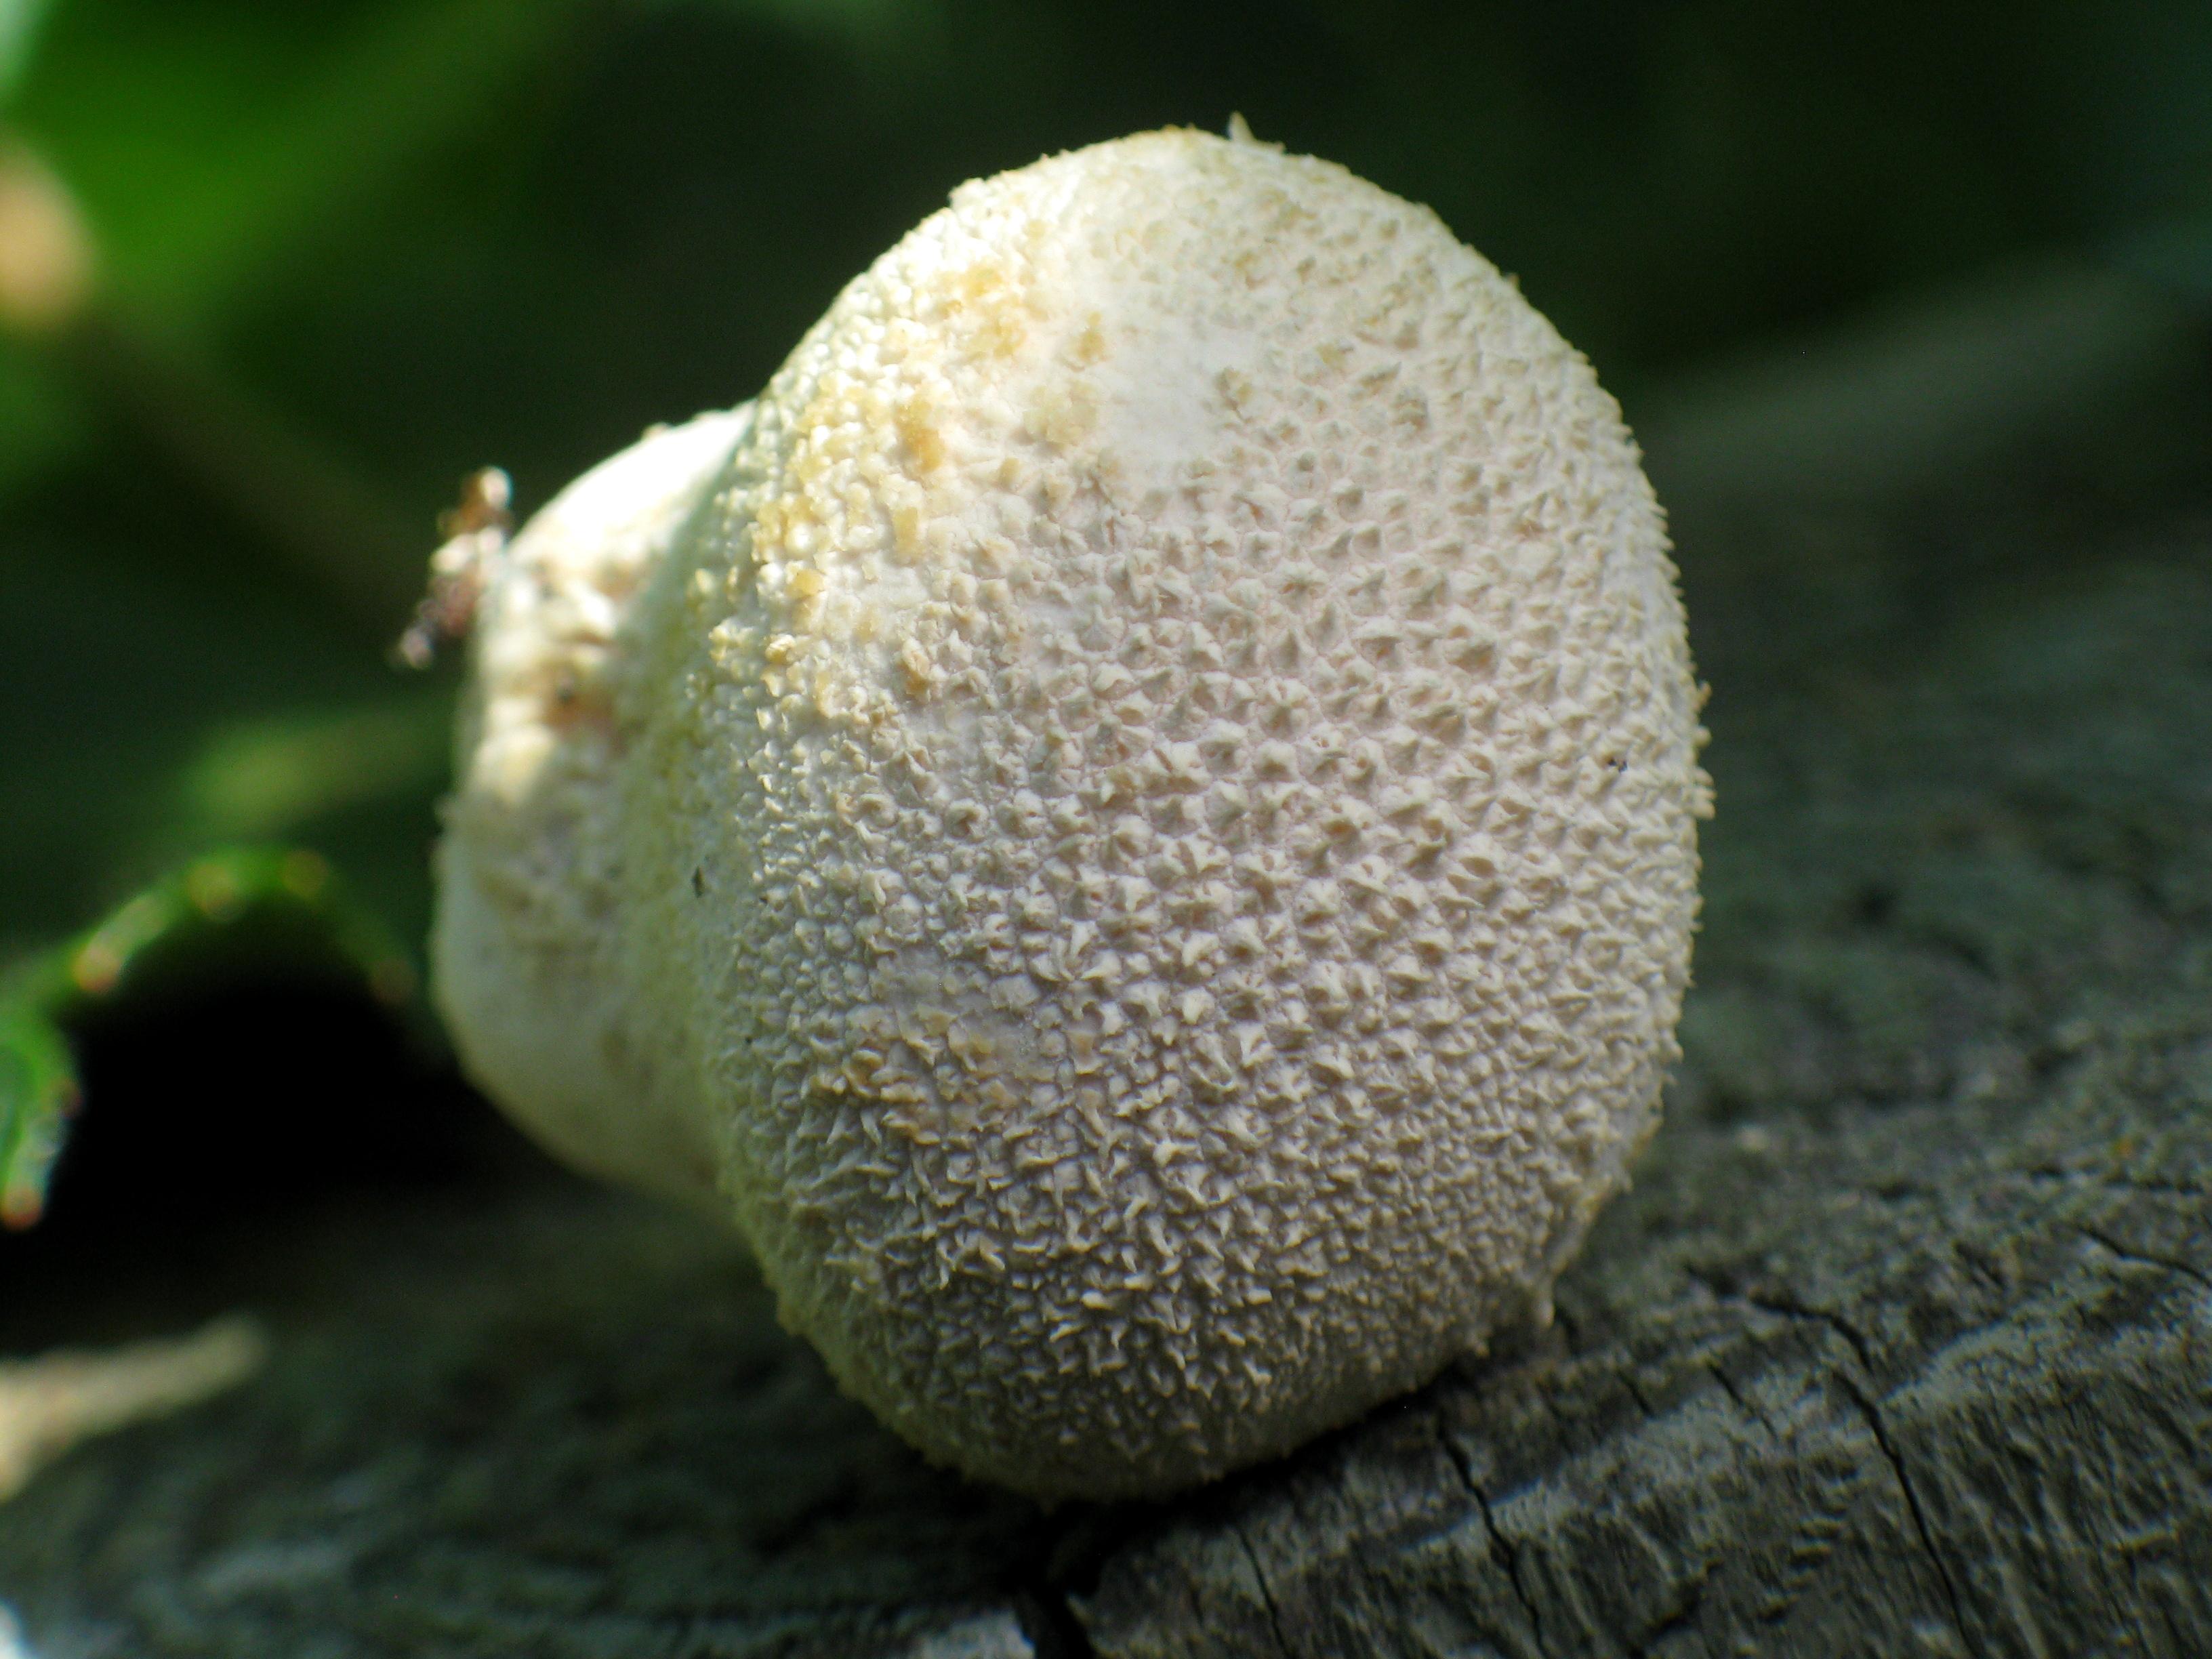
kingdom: Fungi
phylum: Basidiomycota
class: Agaricomycetes
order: Agaricales
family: Lycoperdaceae
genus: Lycoperdon
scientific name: Lycoperdon pratense
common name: flad støvbold
